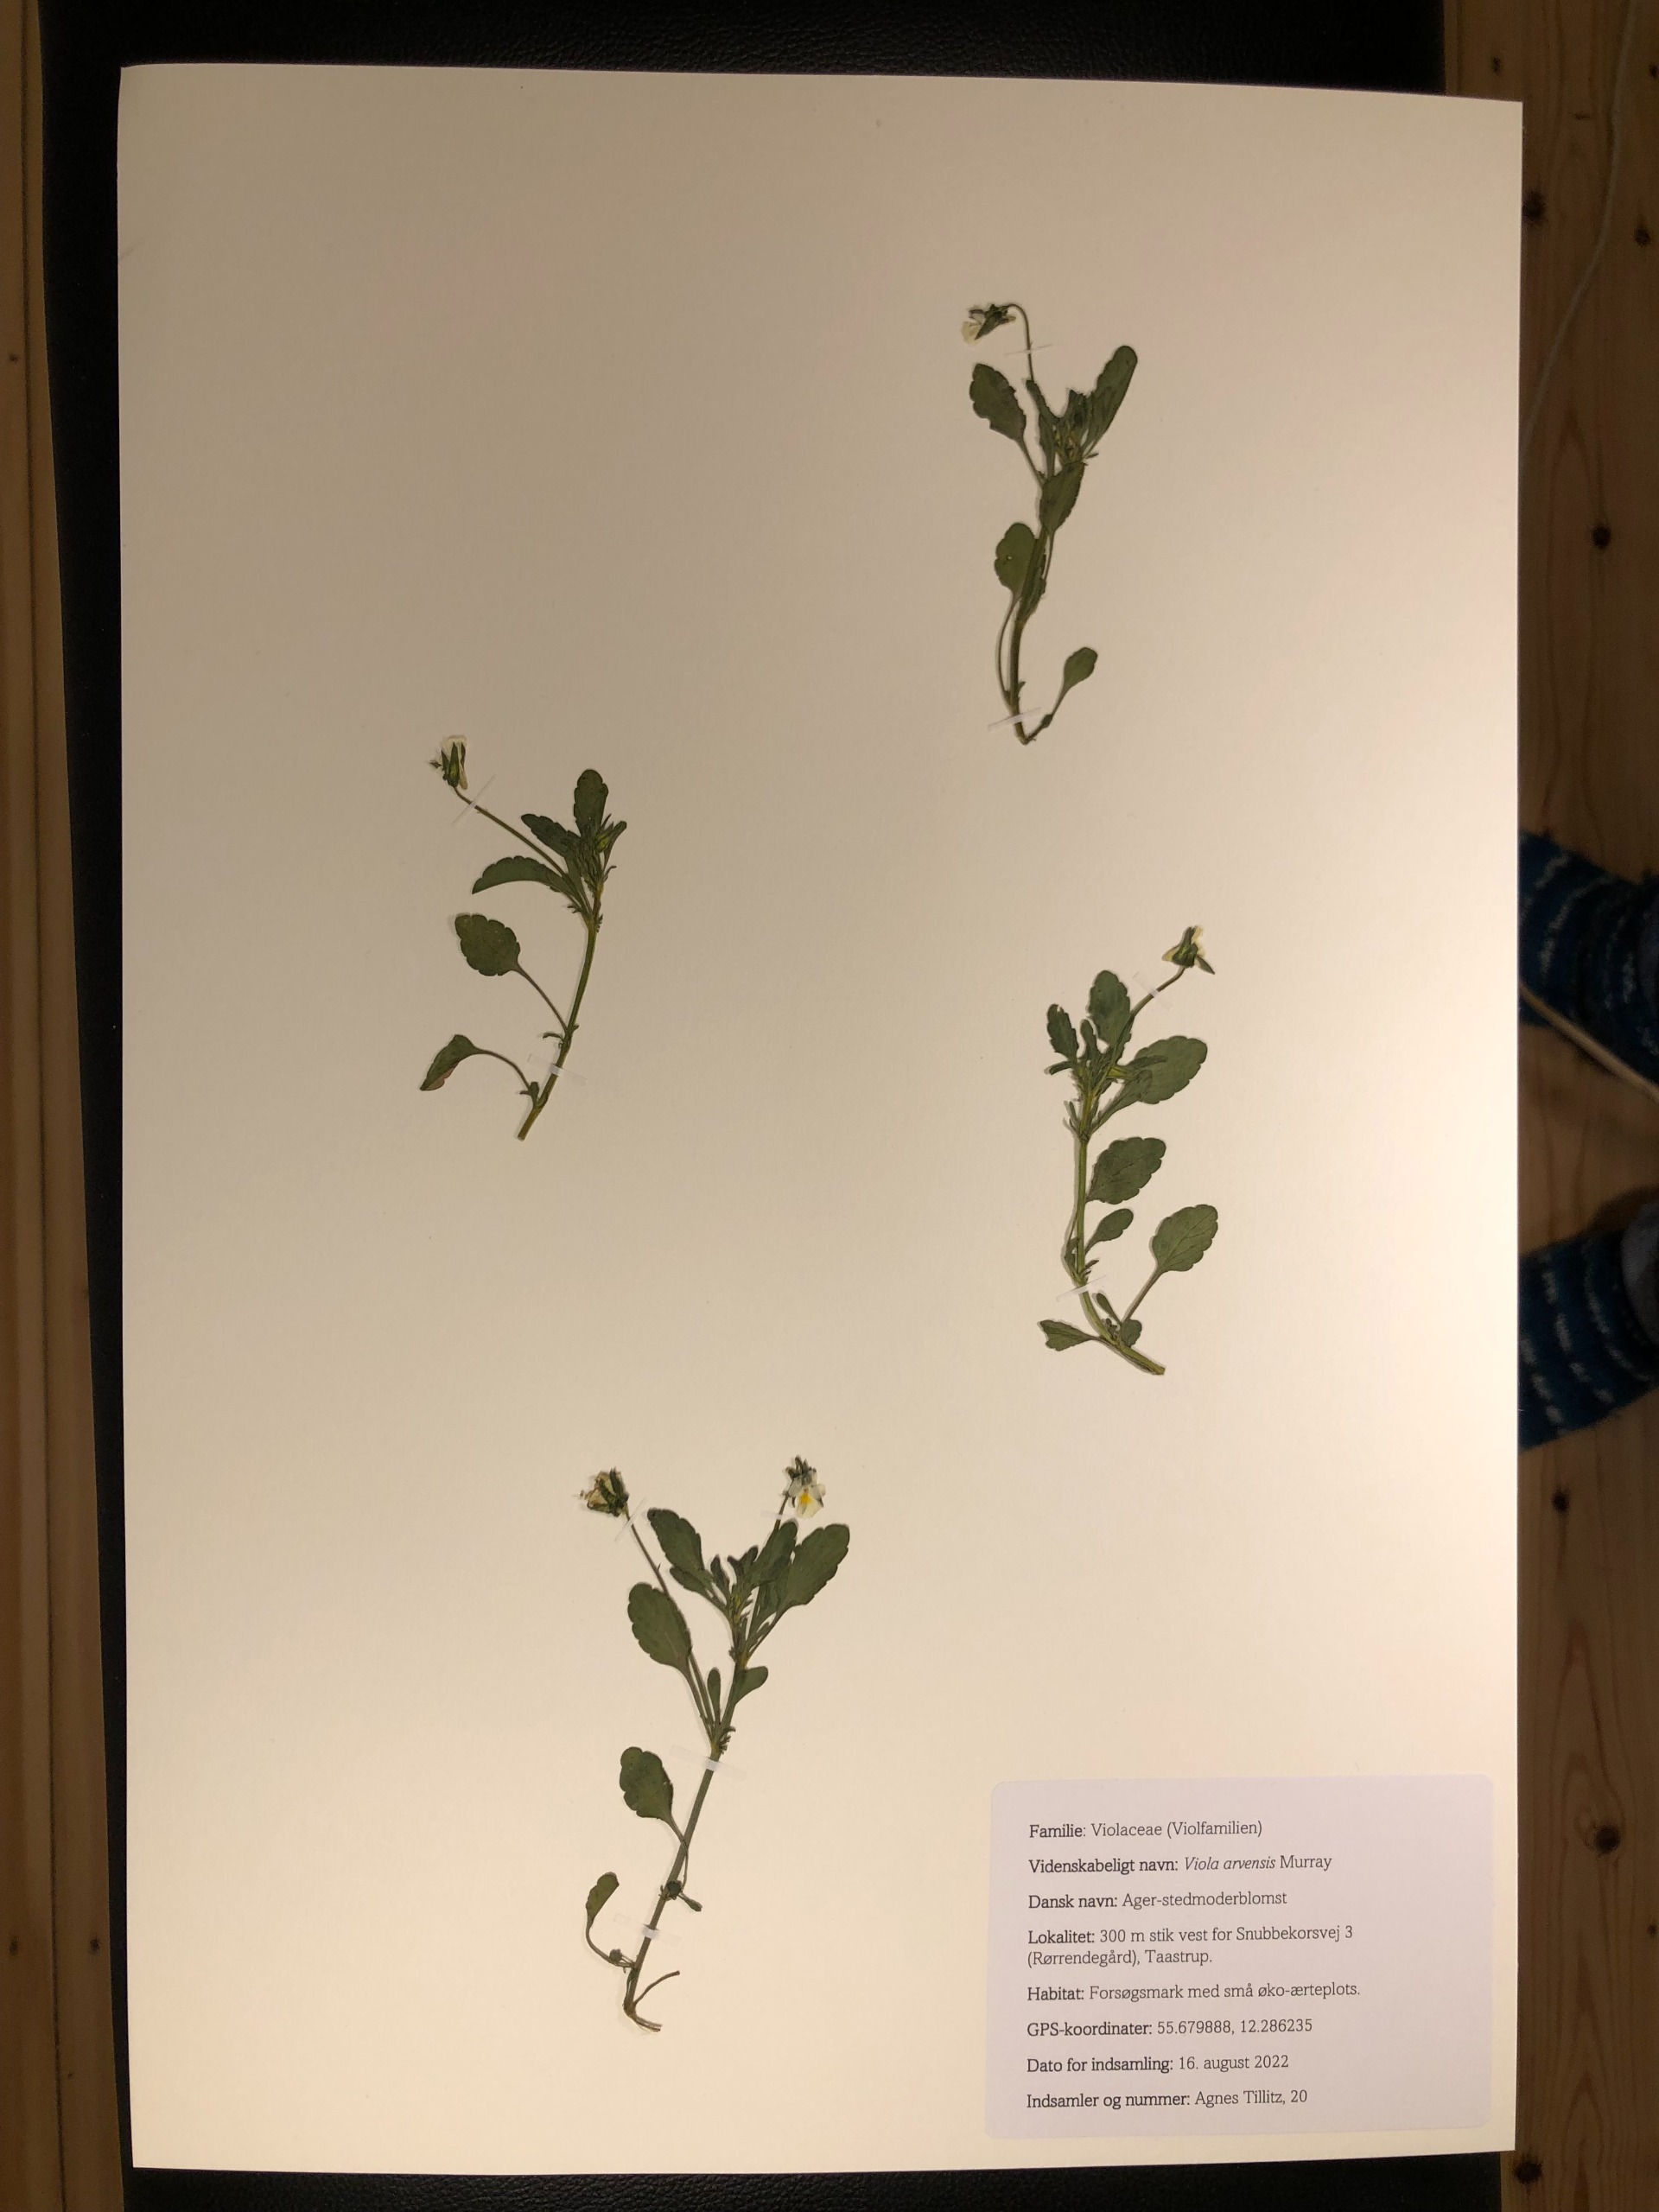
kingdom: Plantae
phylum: Tracheophyta
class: Magnoliopsida
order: Malpighiales
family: Violaceae
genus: Viola
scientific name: Viola arvensis
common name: Ager-stedmoderblomst
